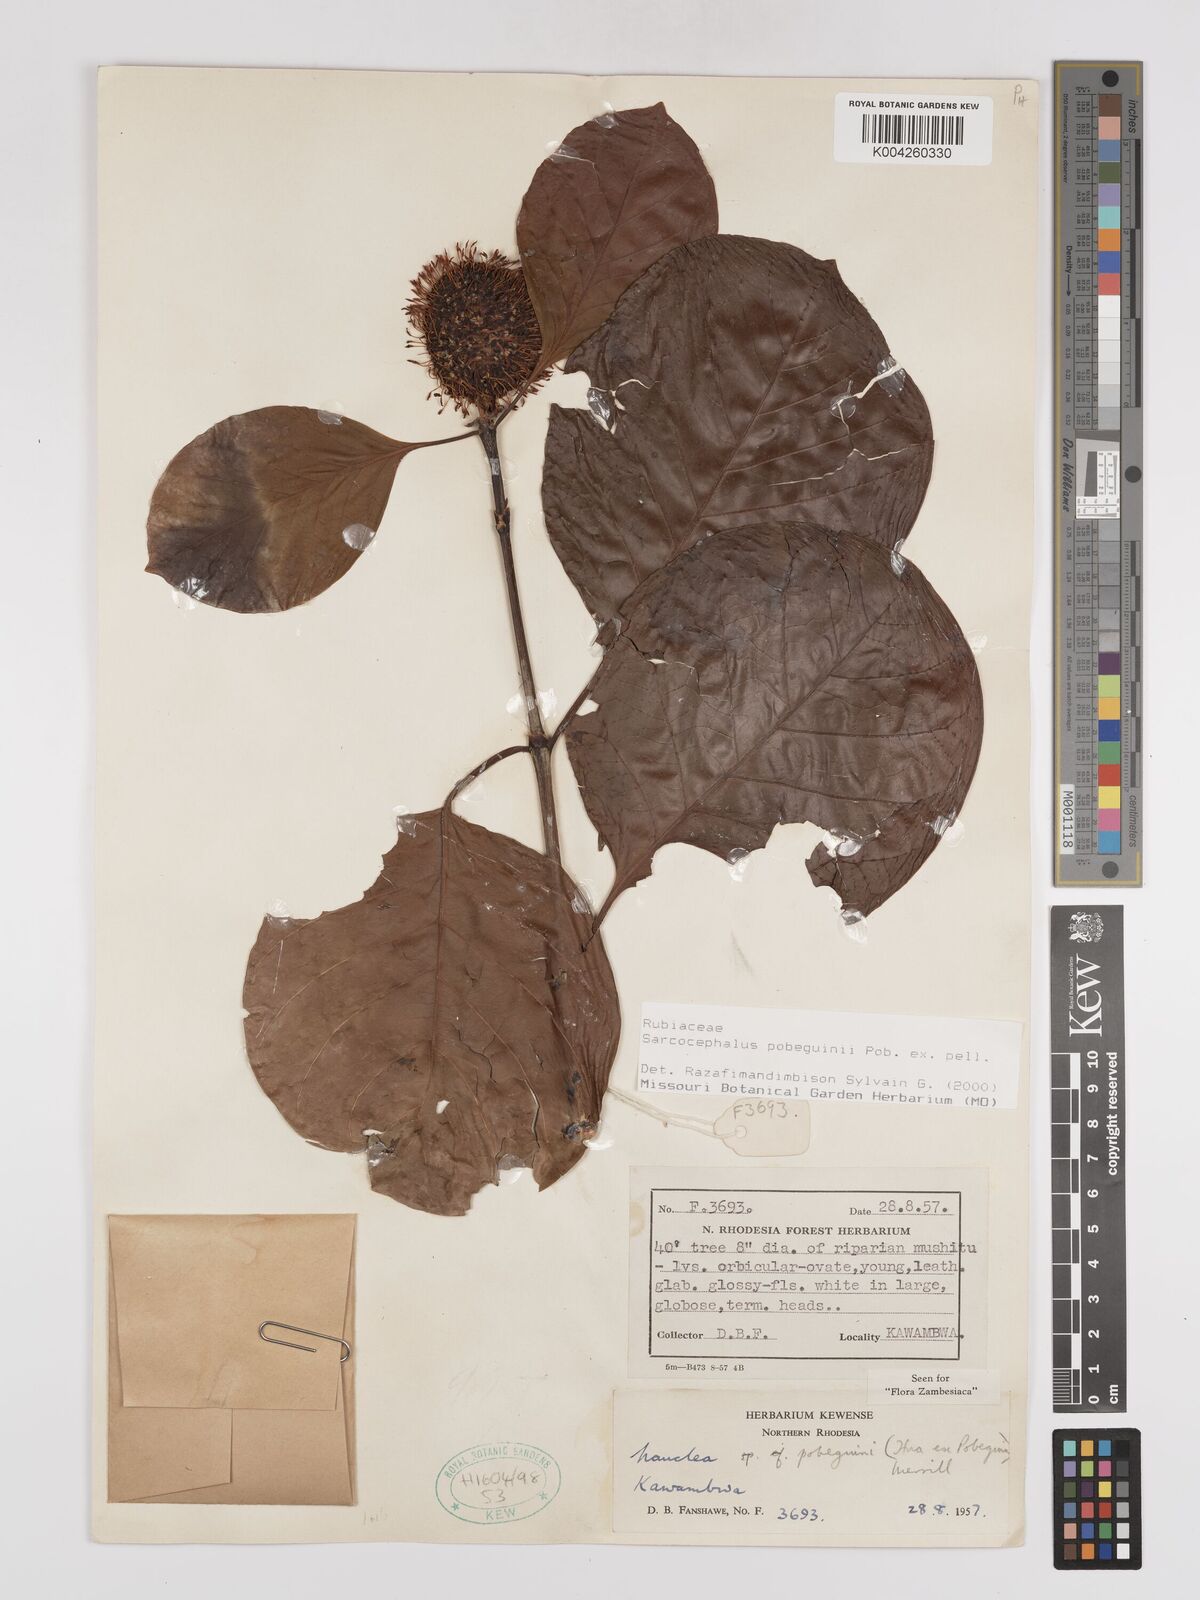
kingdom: Plantae
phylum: Tracheophyta
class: Magnoliopsida
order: Gentianales
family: Rubiaceae
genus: Nauclea
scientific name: Nauclea pobeguinii
